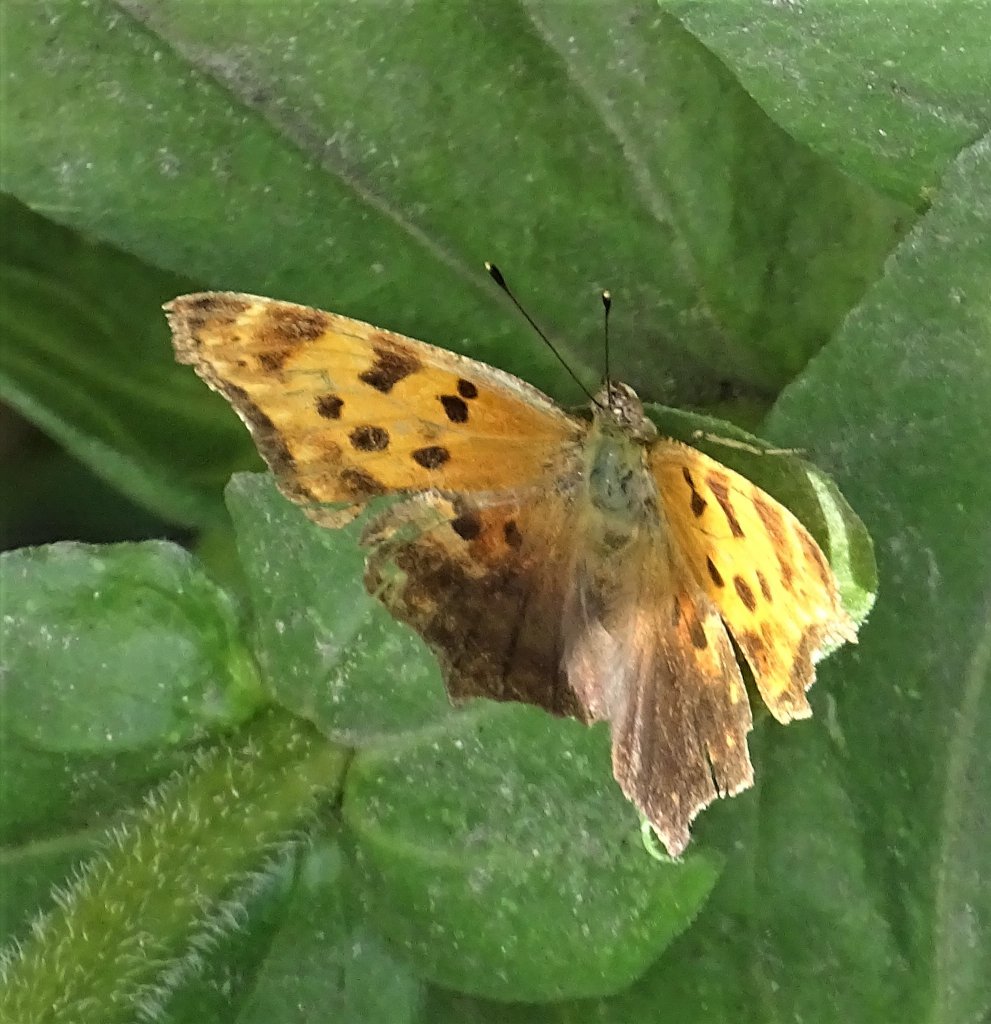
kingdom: Animalia
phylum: Arthropoda
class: Insecta
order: Lepidoptera
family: Nymphalidae
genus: Polygonia
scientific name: Polygonia comma
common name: Eastern Comma
